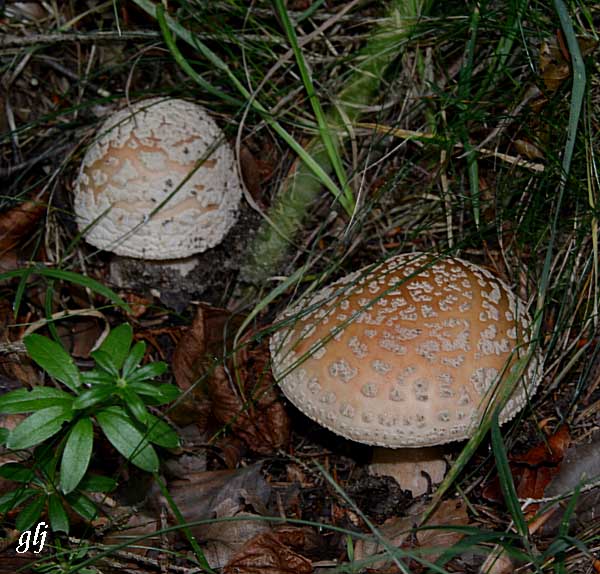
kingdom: Fungi
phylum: Basidiomycota
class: Agaricomycetes
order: Agaricales
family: Amanitaceae
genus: Amanita
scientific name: Amanita rubescens
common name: rødmende fluesvamp
